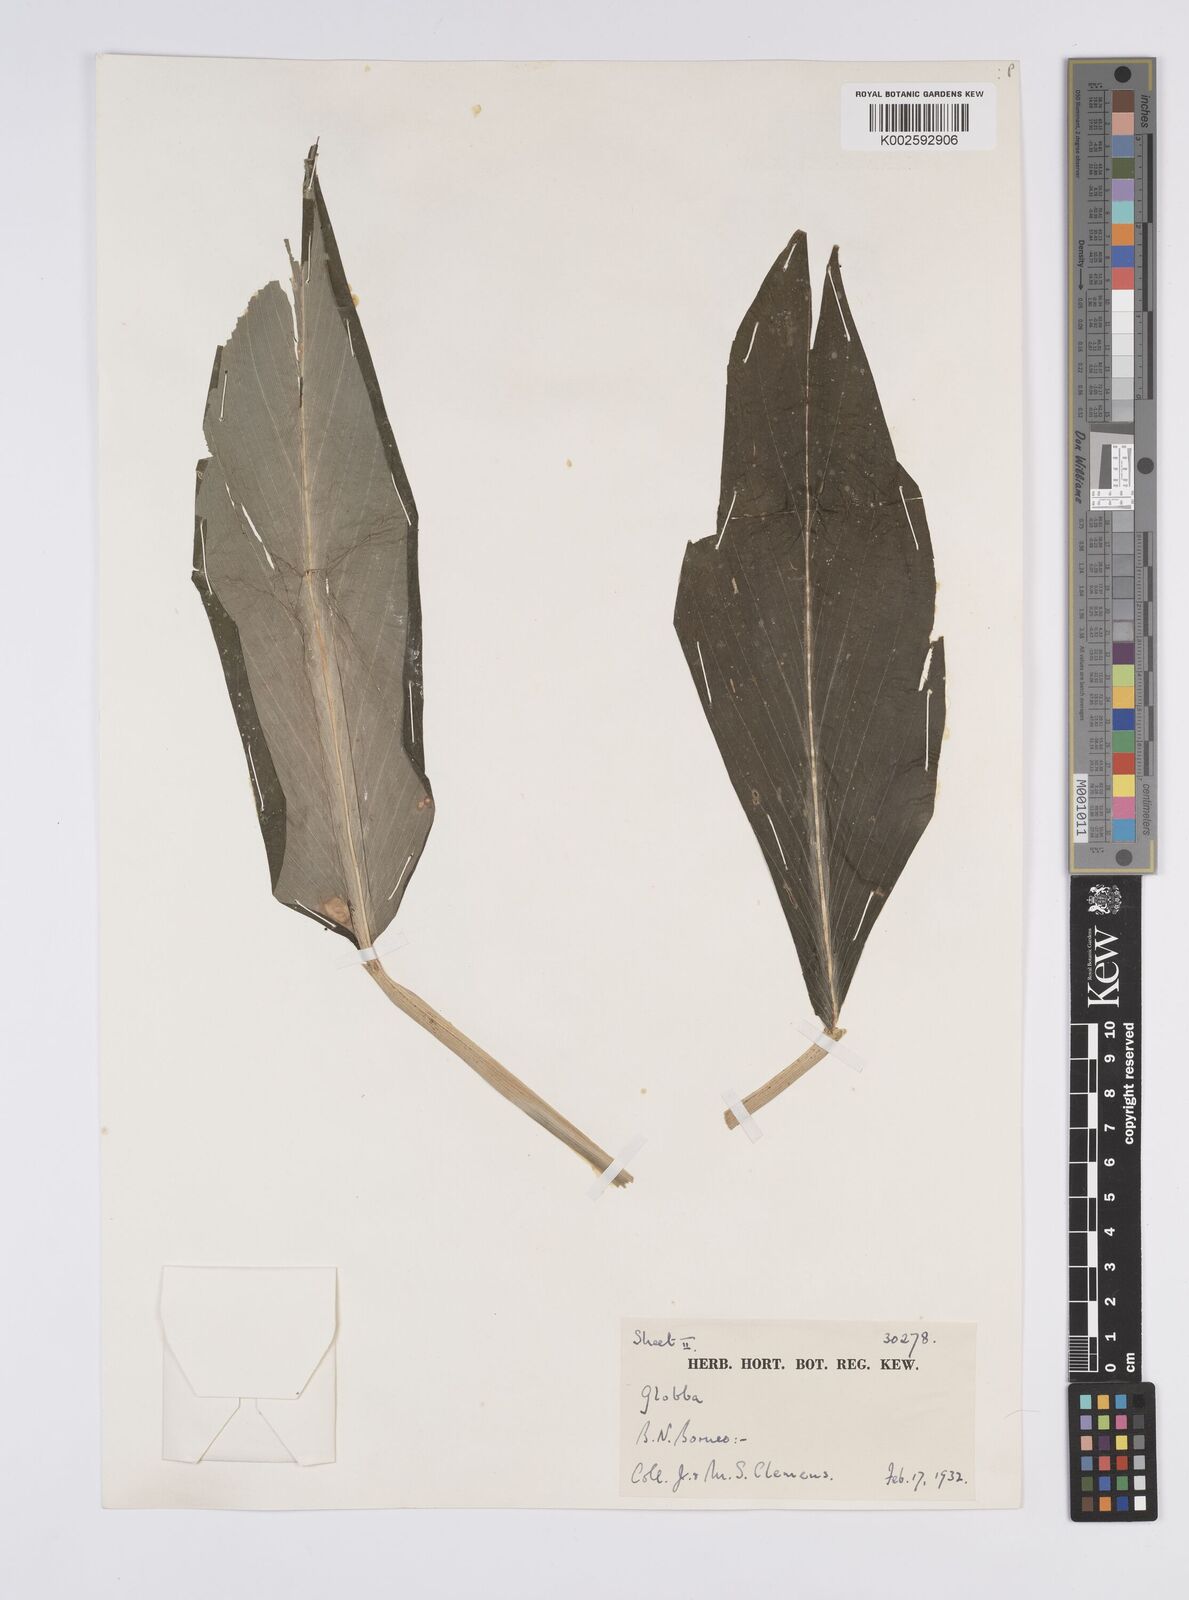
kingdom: Plantae
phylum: Tracheophyta
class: Liliopsida
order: Zingiberales
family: Zingiberaceae
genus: Globba
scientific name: Globba francisci
